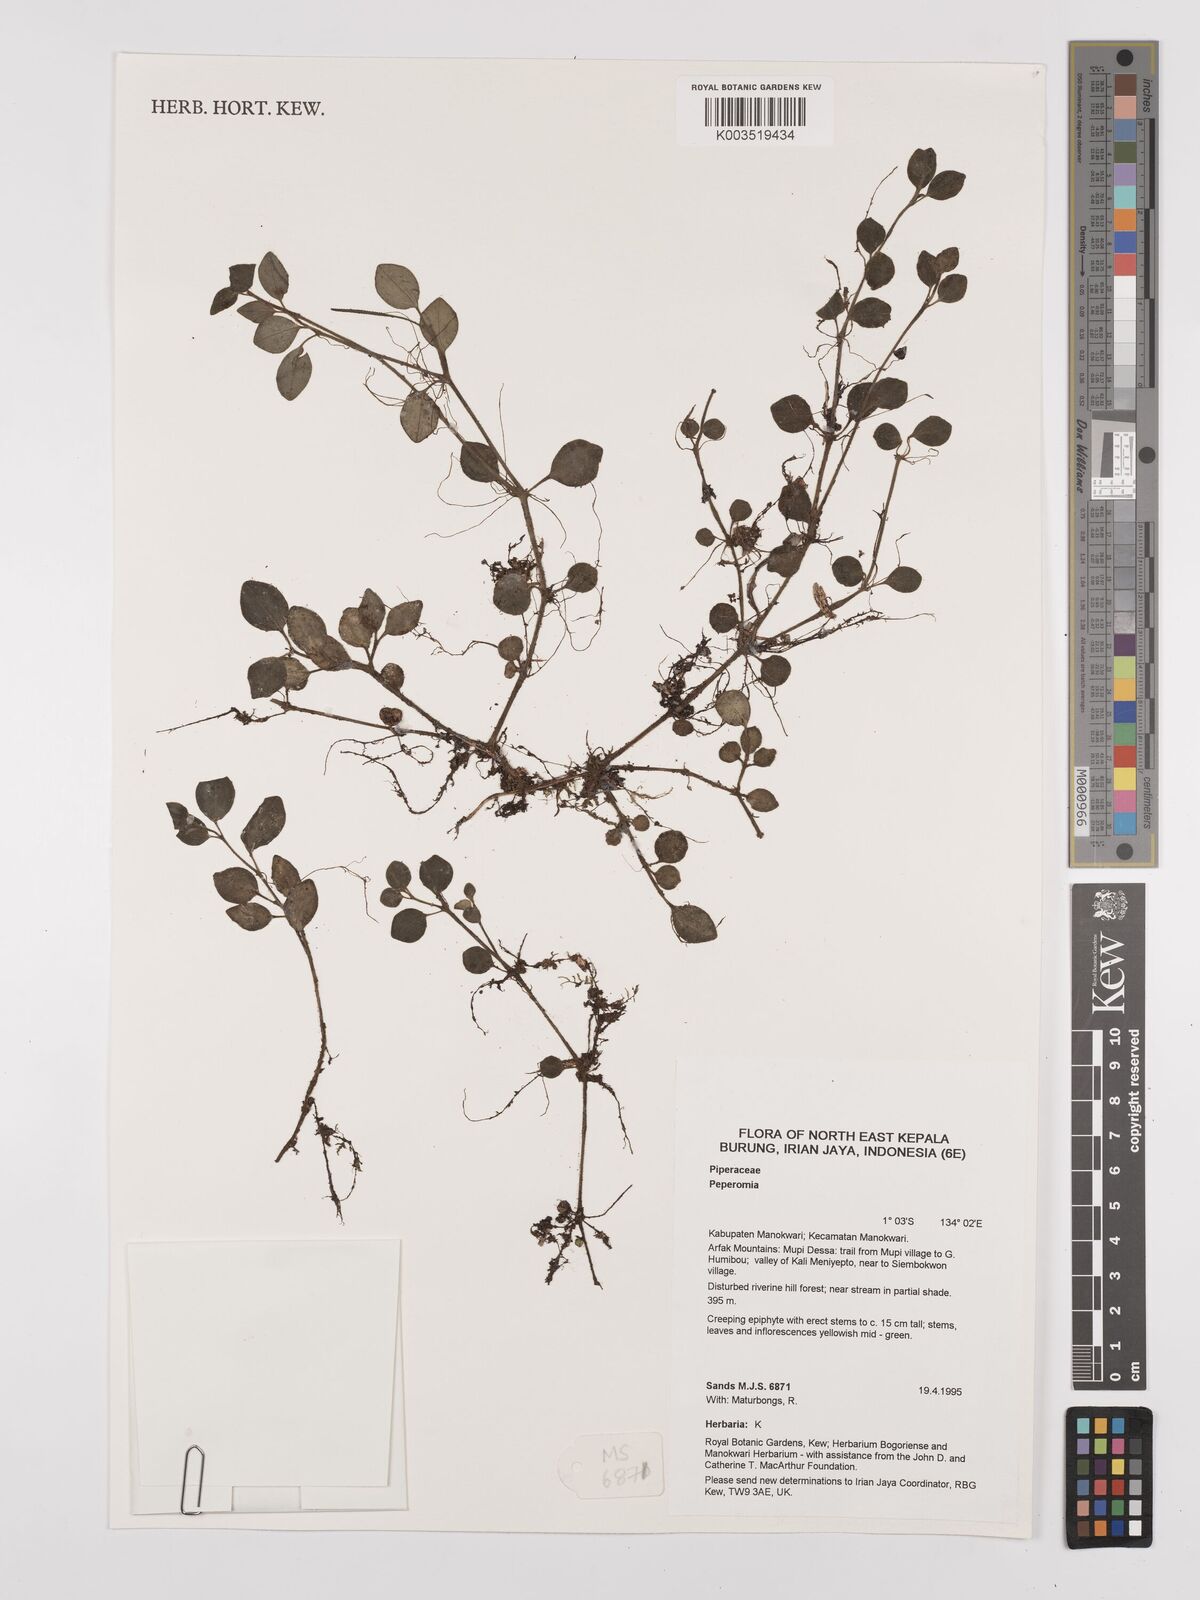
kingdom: Plantae
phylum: Tracheophyta
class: Magnoliopsida
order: Piperales
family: Piperaceae
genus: Peperomia
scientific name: Peperomia
